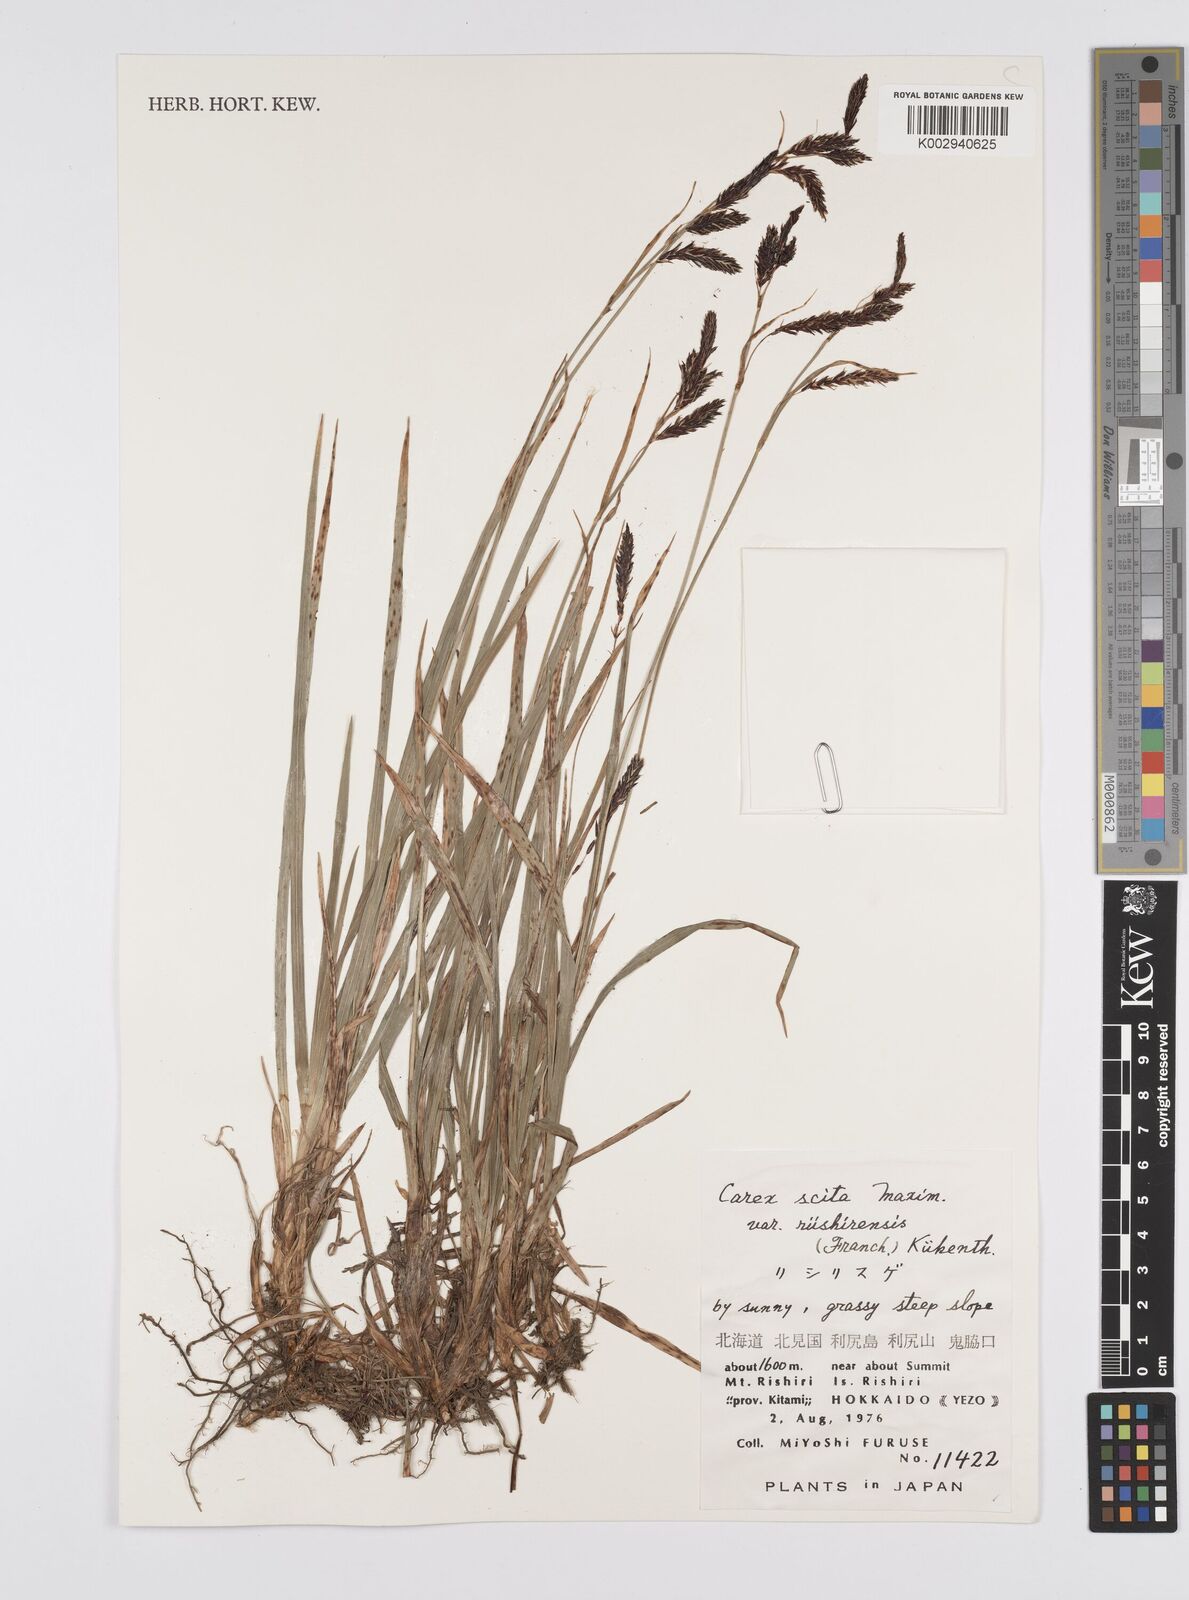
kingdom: Plantae
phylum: Tracheophyta
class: Liliopsida
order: Poales
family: Cyperaceae
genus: Carex
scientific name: Carex scita
